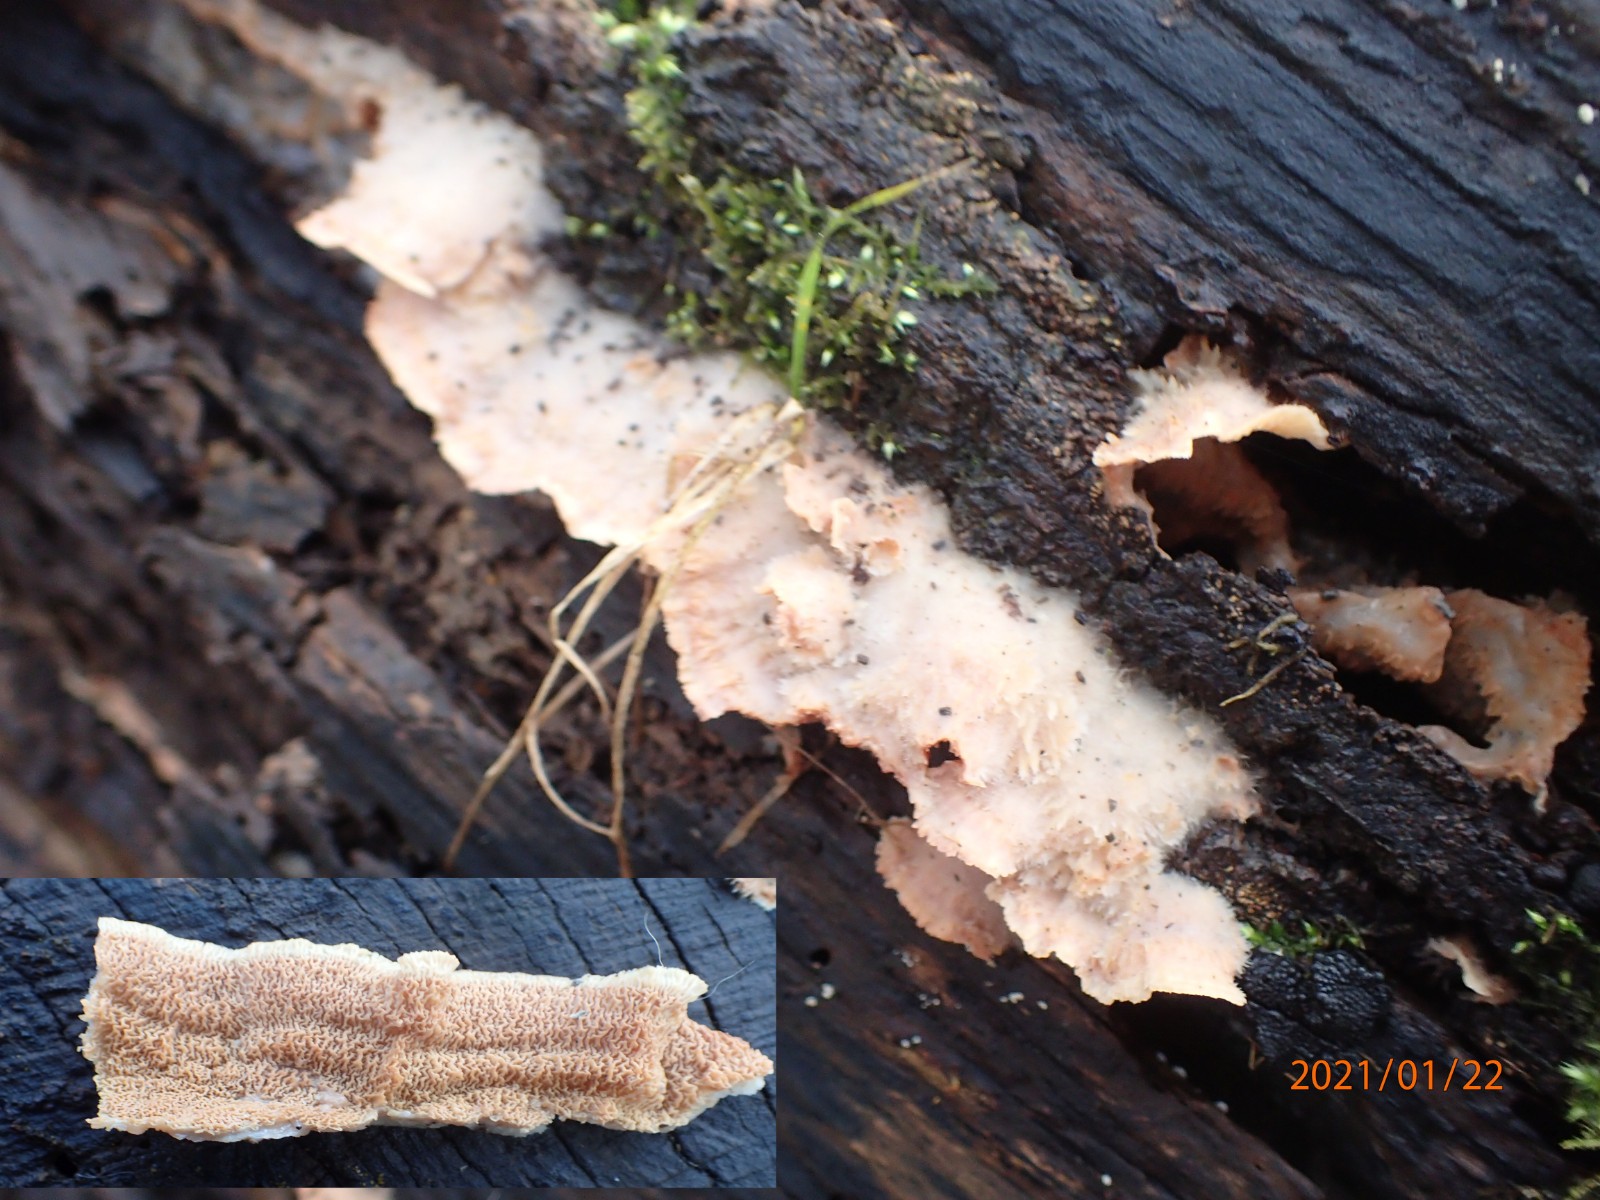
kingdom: Fungi
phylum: Basidiomycota
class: Agaricomycetes
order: Polyporales
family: Meruliaceae
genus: Phlebia
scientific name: Phlebia tremellosa
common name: bævrende åresvamp
